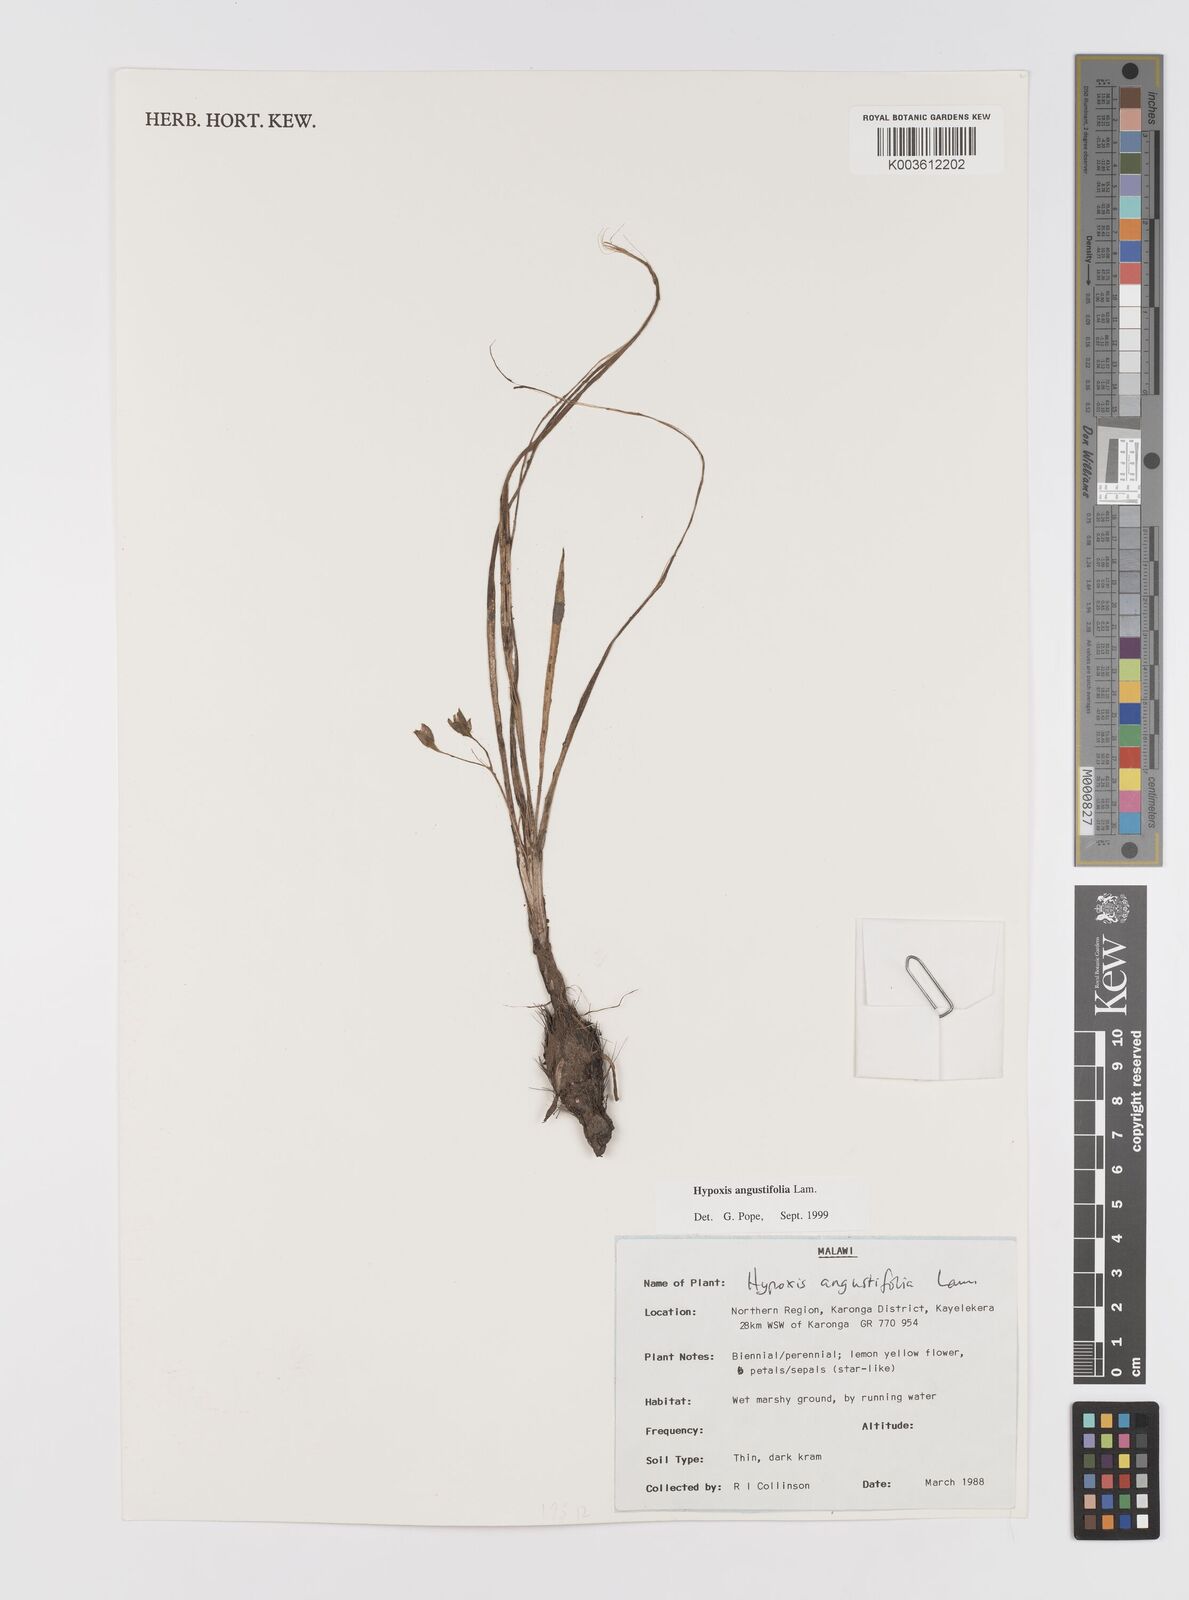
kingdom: Plantae
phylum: Tracheophyta
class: Liliopsida
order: Asparagales
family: Hypoxidaceae
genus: Hypoxis
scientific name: Hypoxis angustifolia
